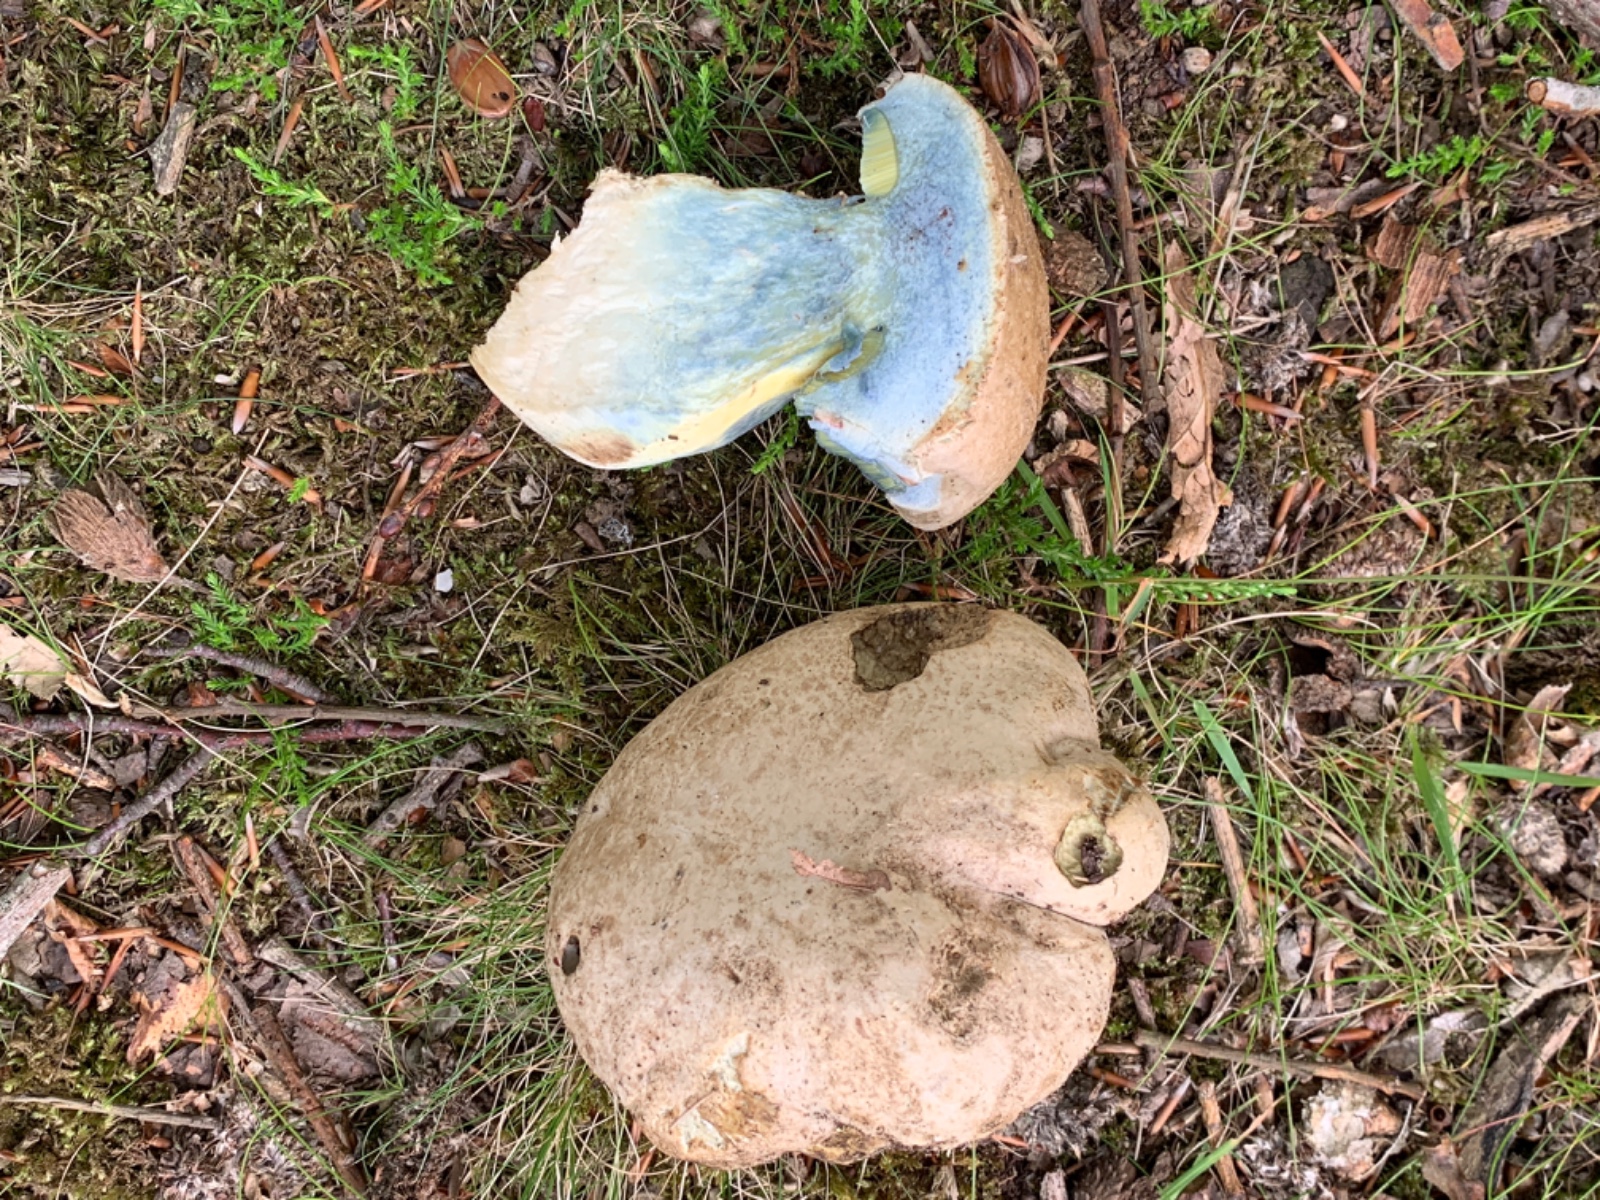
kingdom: Fungi
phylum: Basidiomycota
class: Agaricomycetes
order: Boletales
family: Boletaceae
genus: Caloboletus
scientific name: Caloboletus radicans
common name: rod-rørhat
